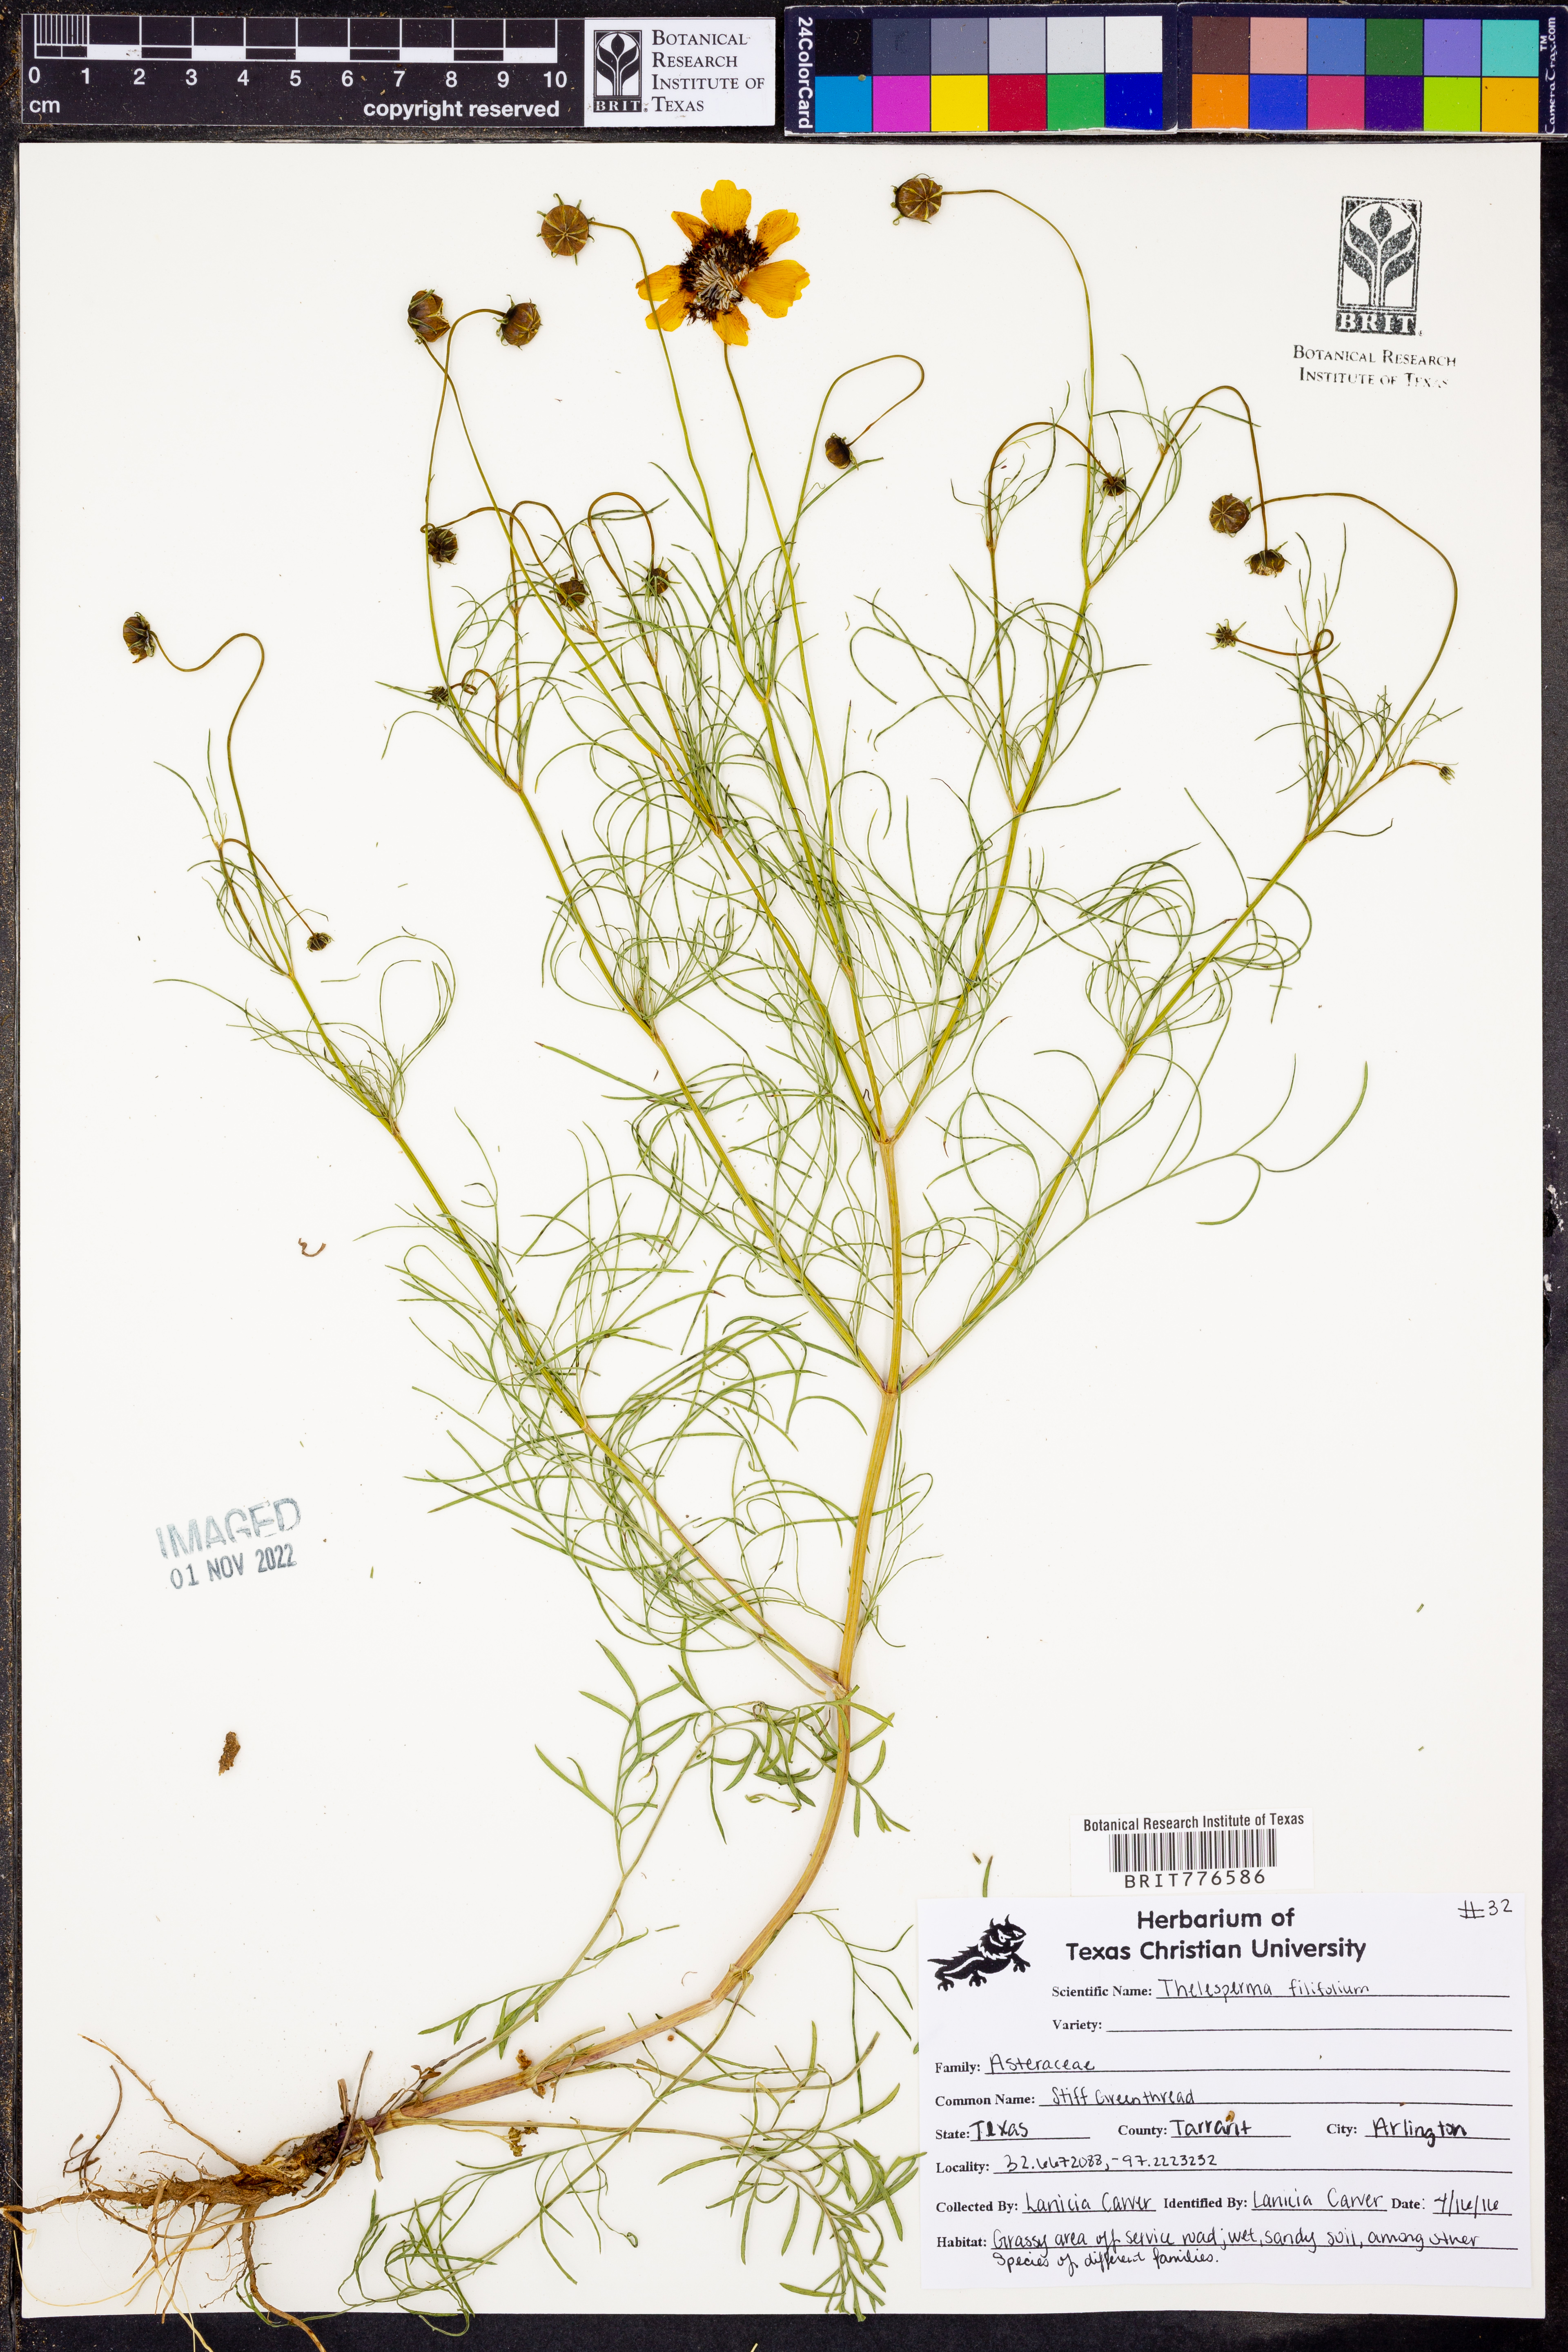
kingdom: Plantae
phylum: Tracheophyta
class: Magnoliopsida
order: Asterales
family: Asteraceae
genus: Thelesperma
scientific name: Thelesperma filifolium
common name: Stiff greenthread
